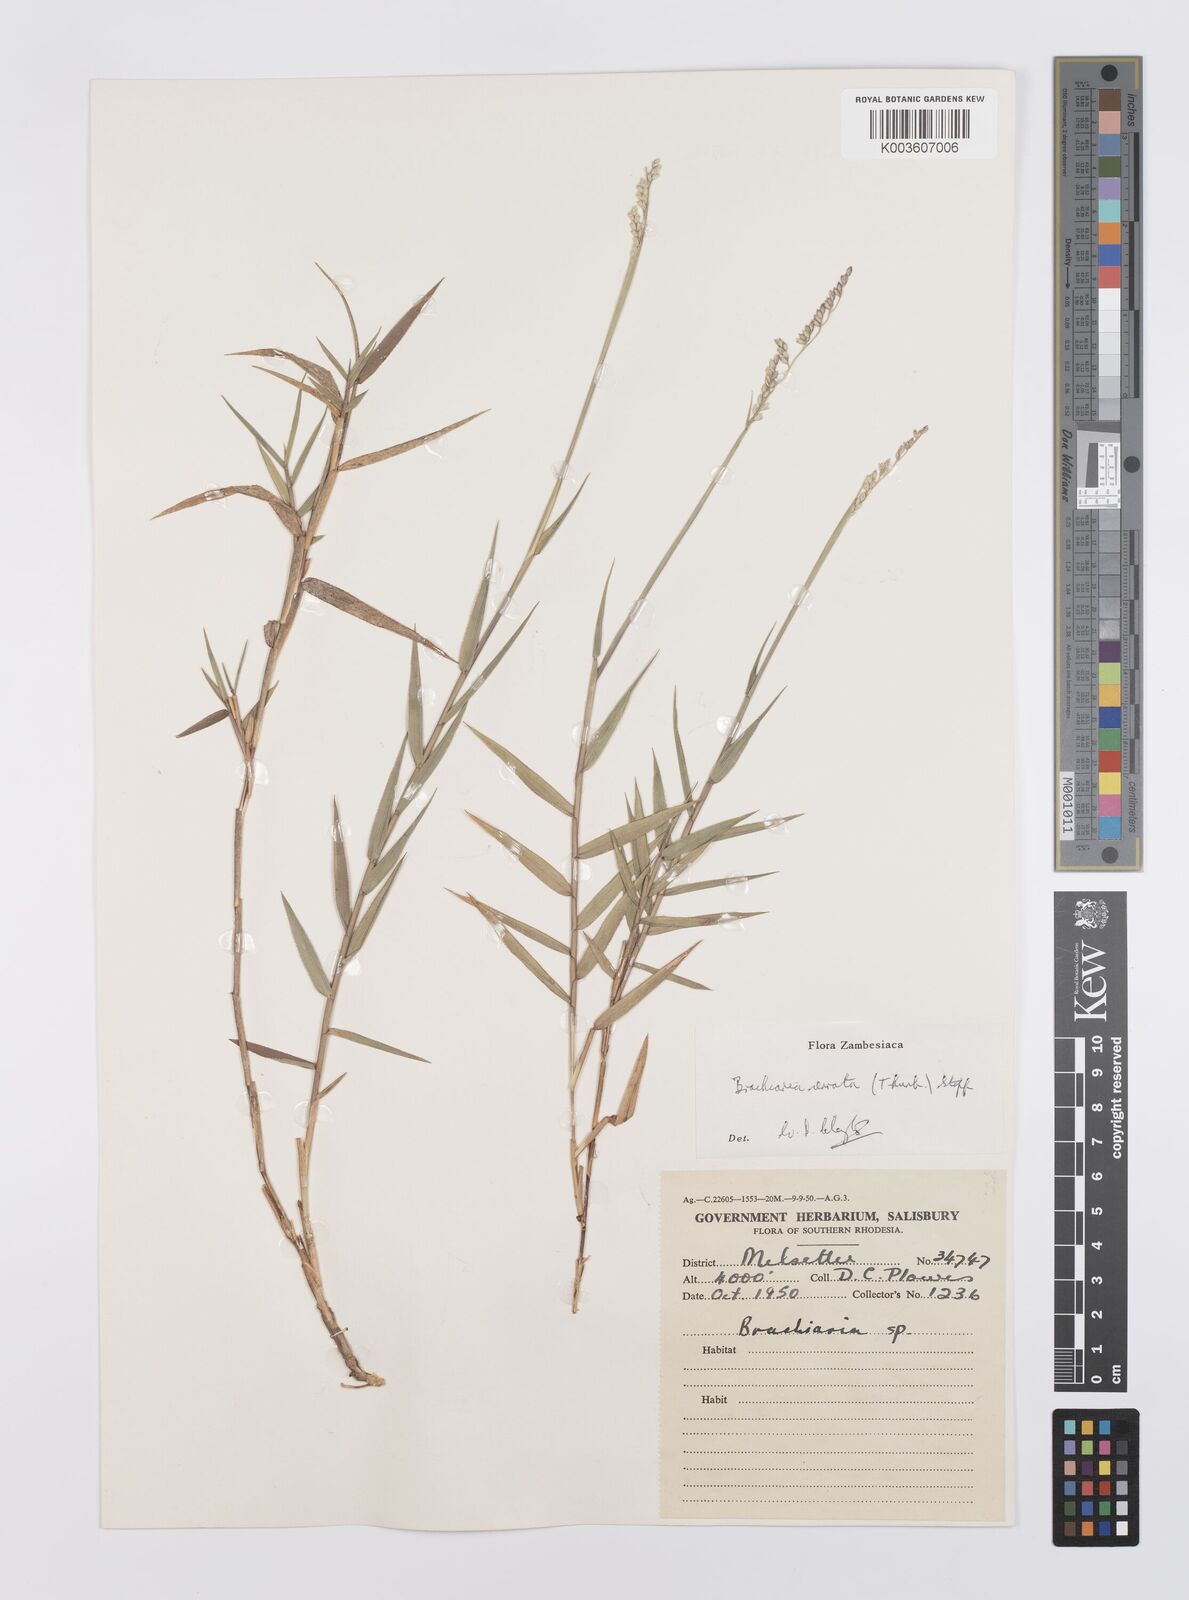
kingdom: Plantae
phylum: Tracheophyta
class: Liliopsida
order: Poales
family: Poaceae
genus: Urochloa
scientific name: Urochloa serrata
